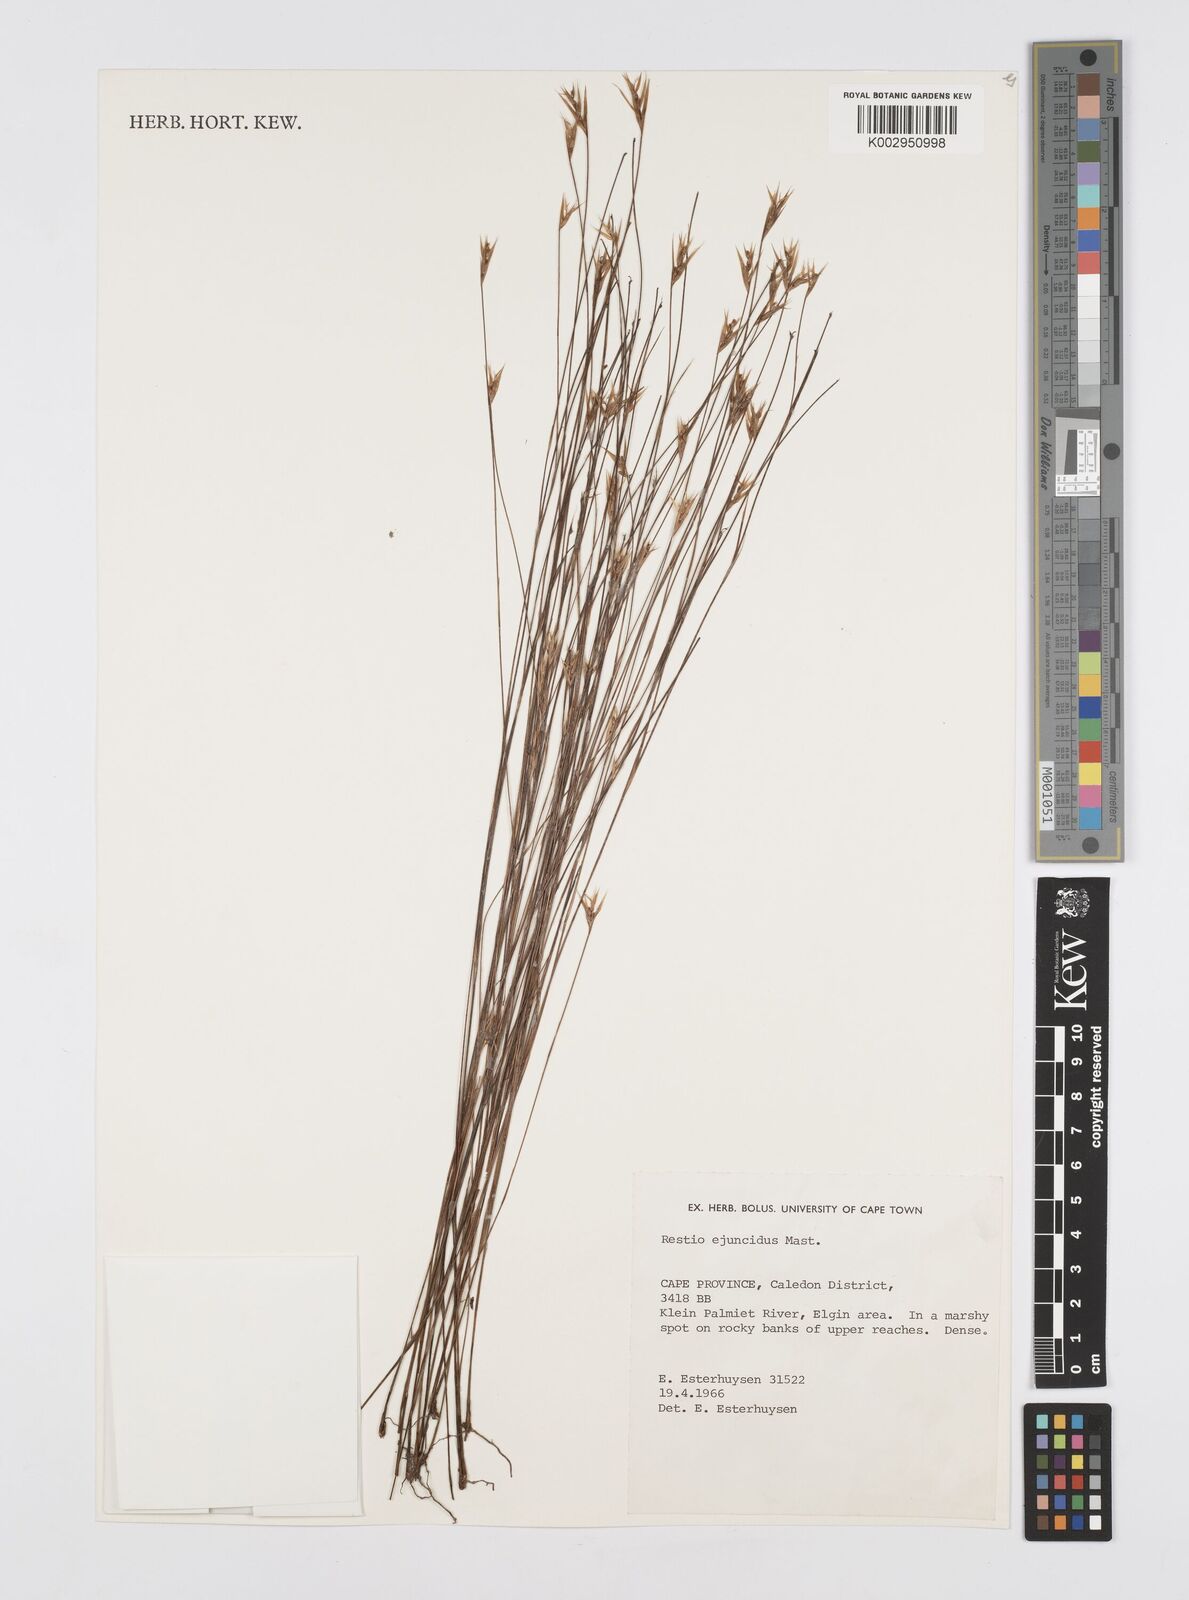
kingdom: Plantae
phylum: Tracheophyta
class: Liliopsida
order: Poales
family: Restionaceae
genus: Restio
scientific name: Restio ejuncidus
